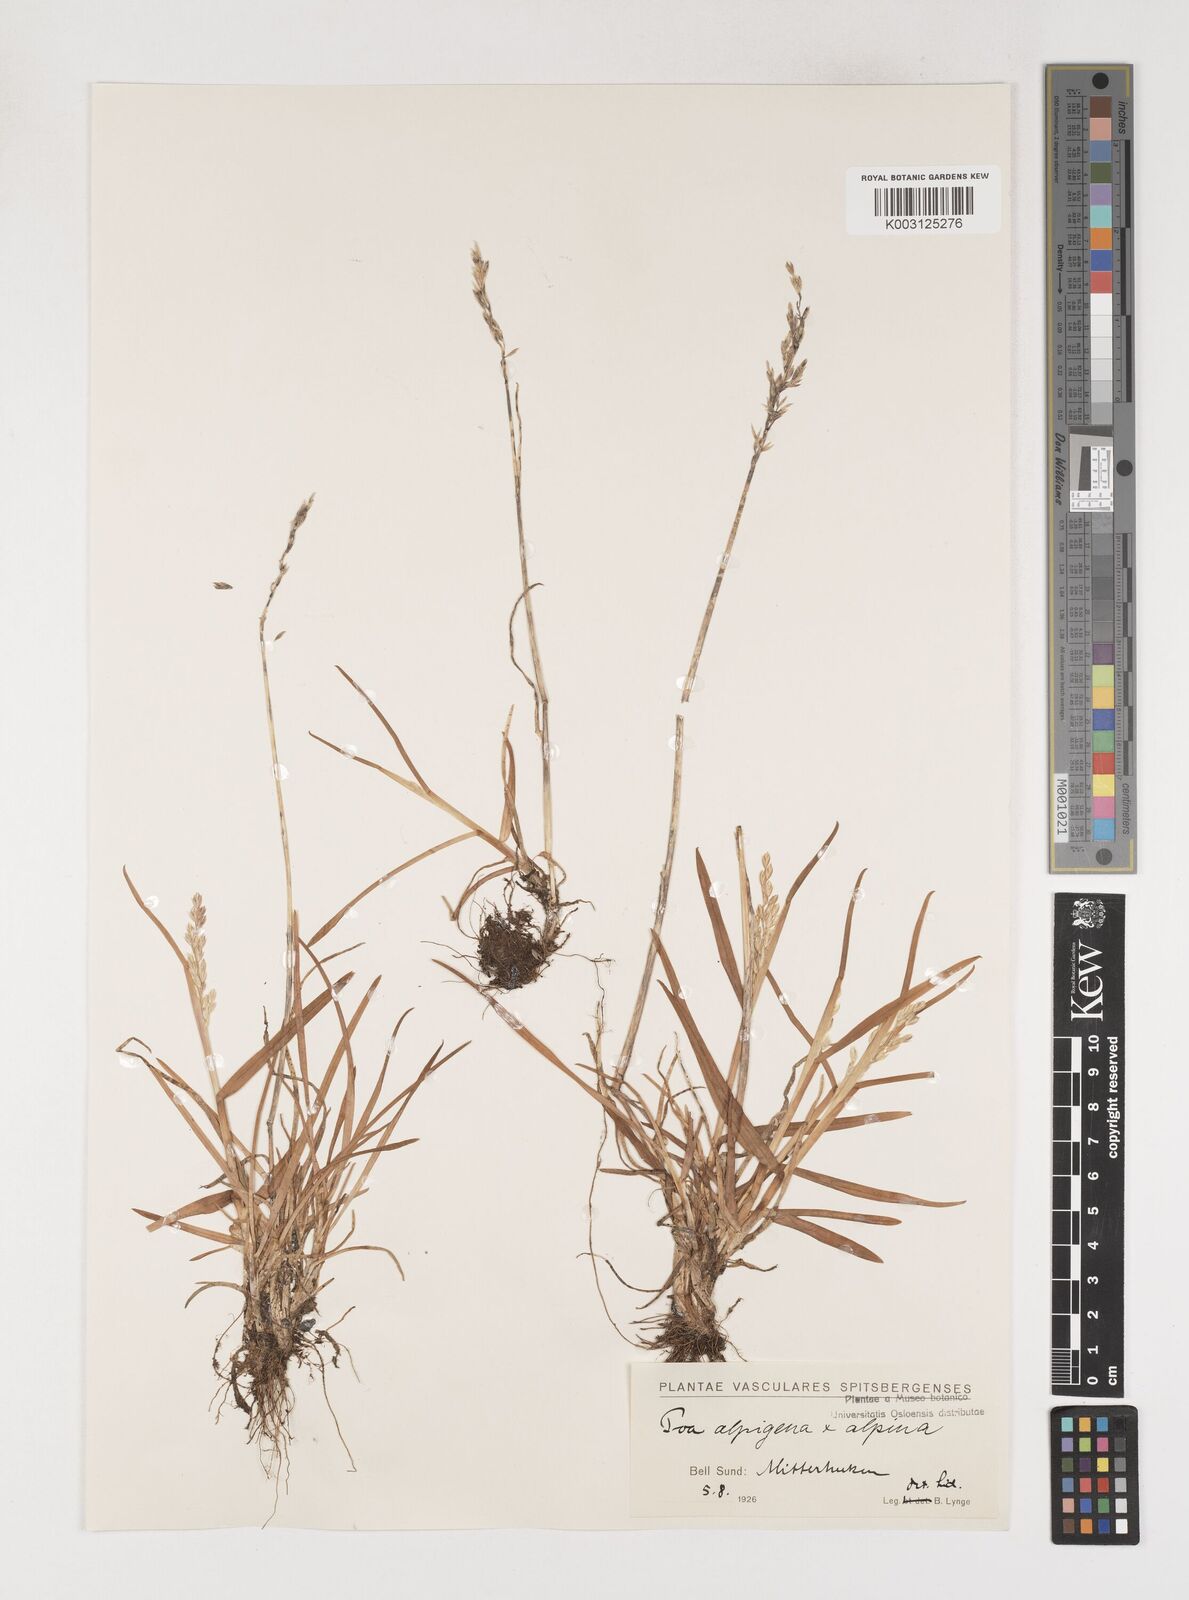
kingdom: Plantae
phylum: Tracheophyta
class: Liliopsida
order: Poales
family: Poaceae
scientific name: Poaceae
